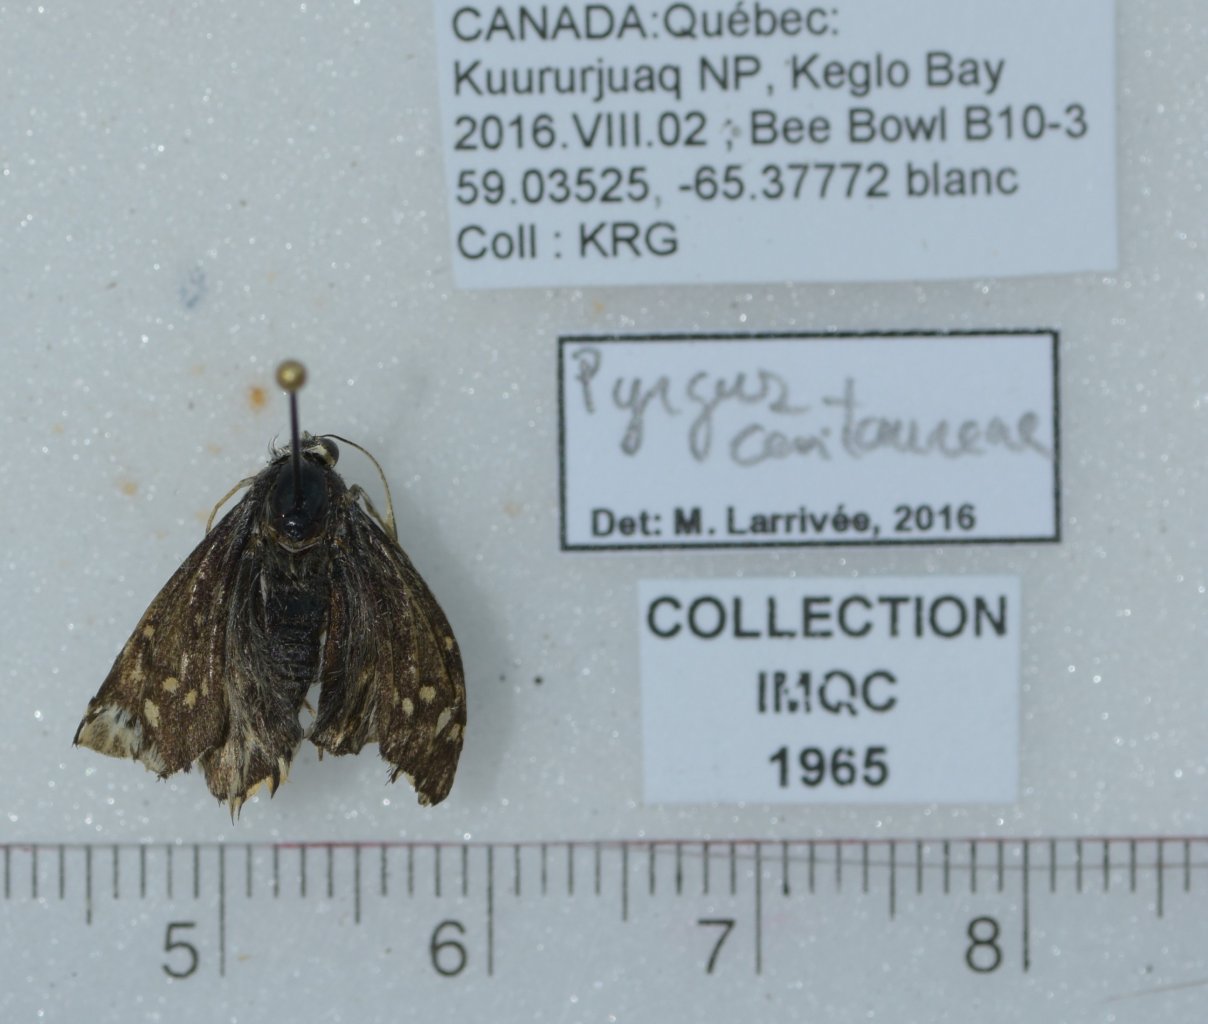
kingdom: Animalia
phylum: Arthropoda
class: Insecta
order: Lepidoptera
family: Hesperiidae
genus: Pyrgus
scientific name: Pyrgus centaureae
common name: Grizzled Skipper
